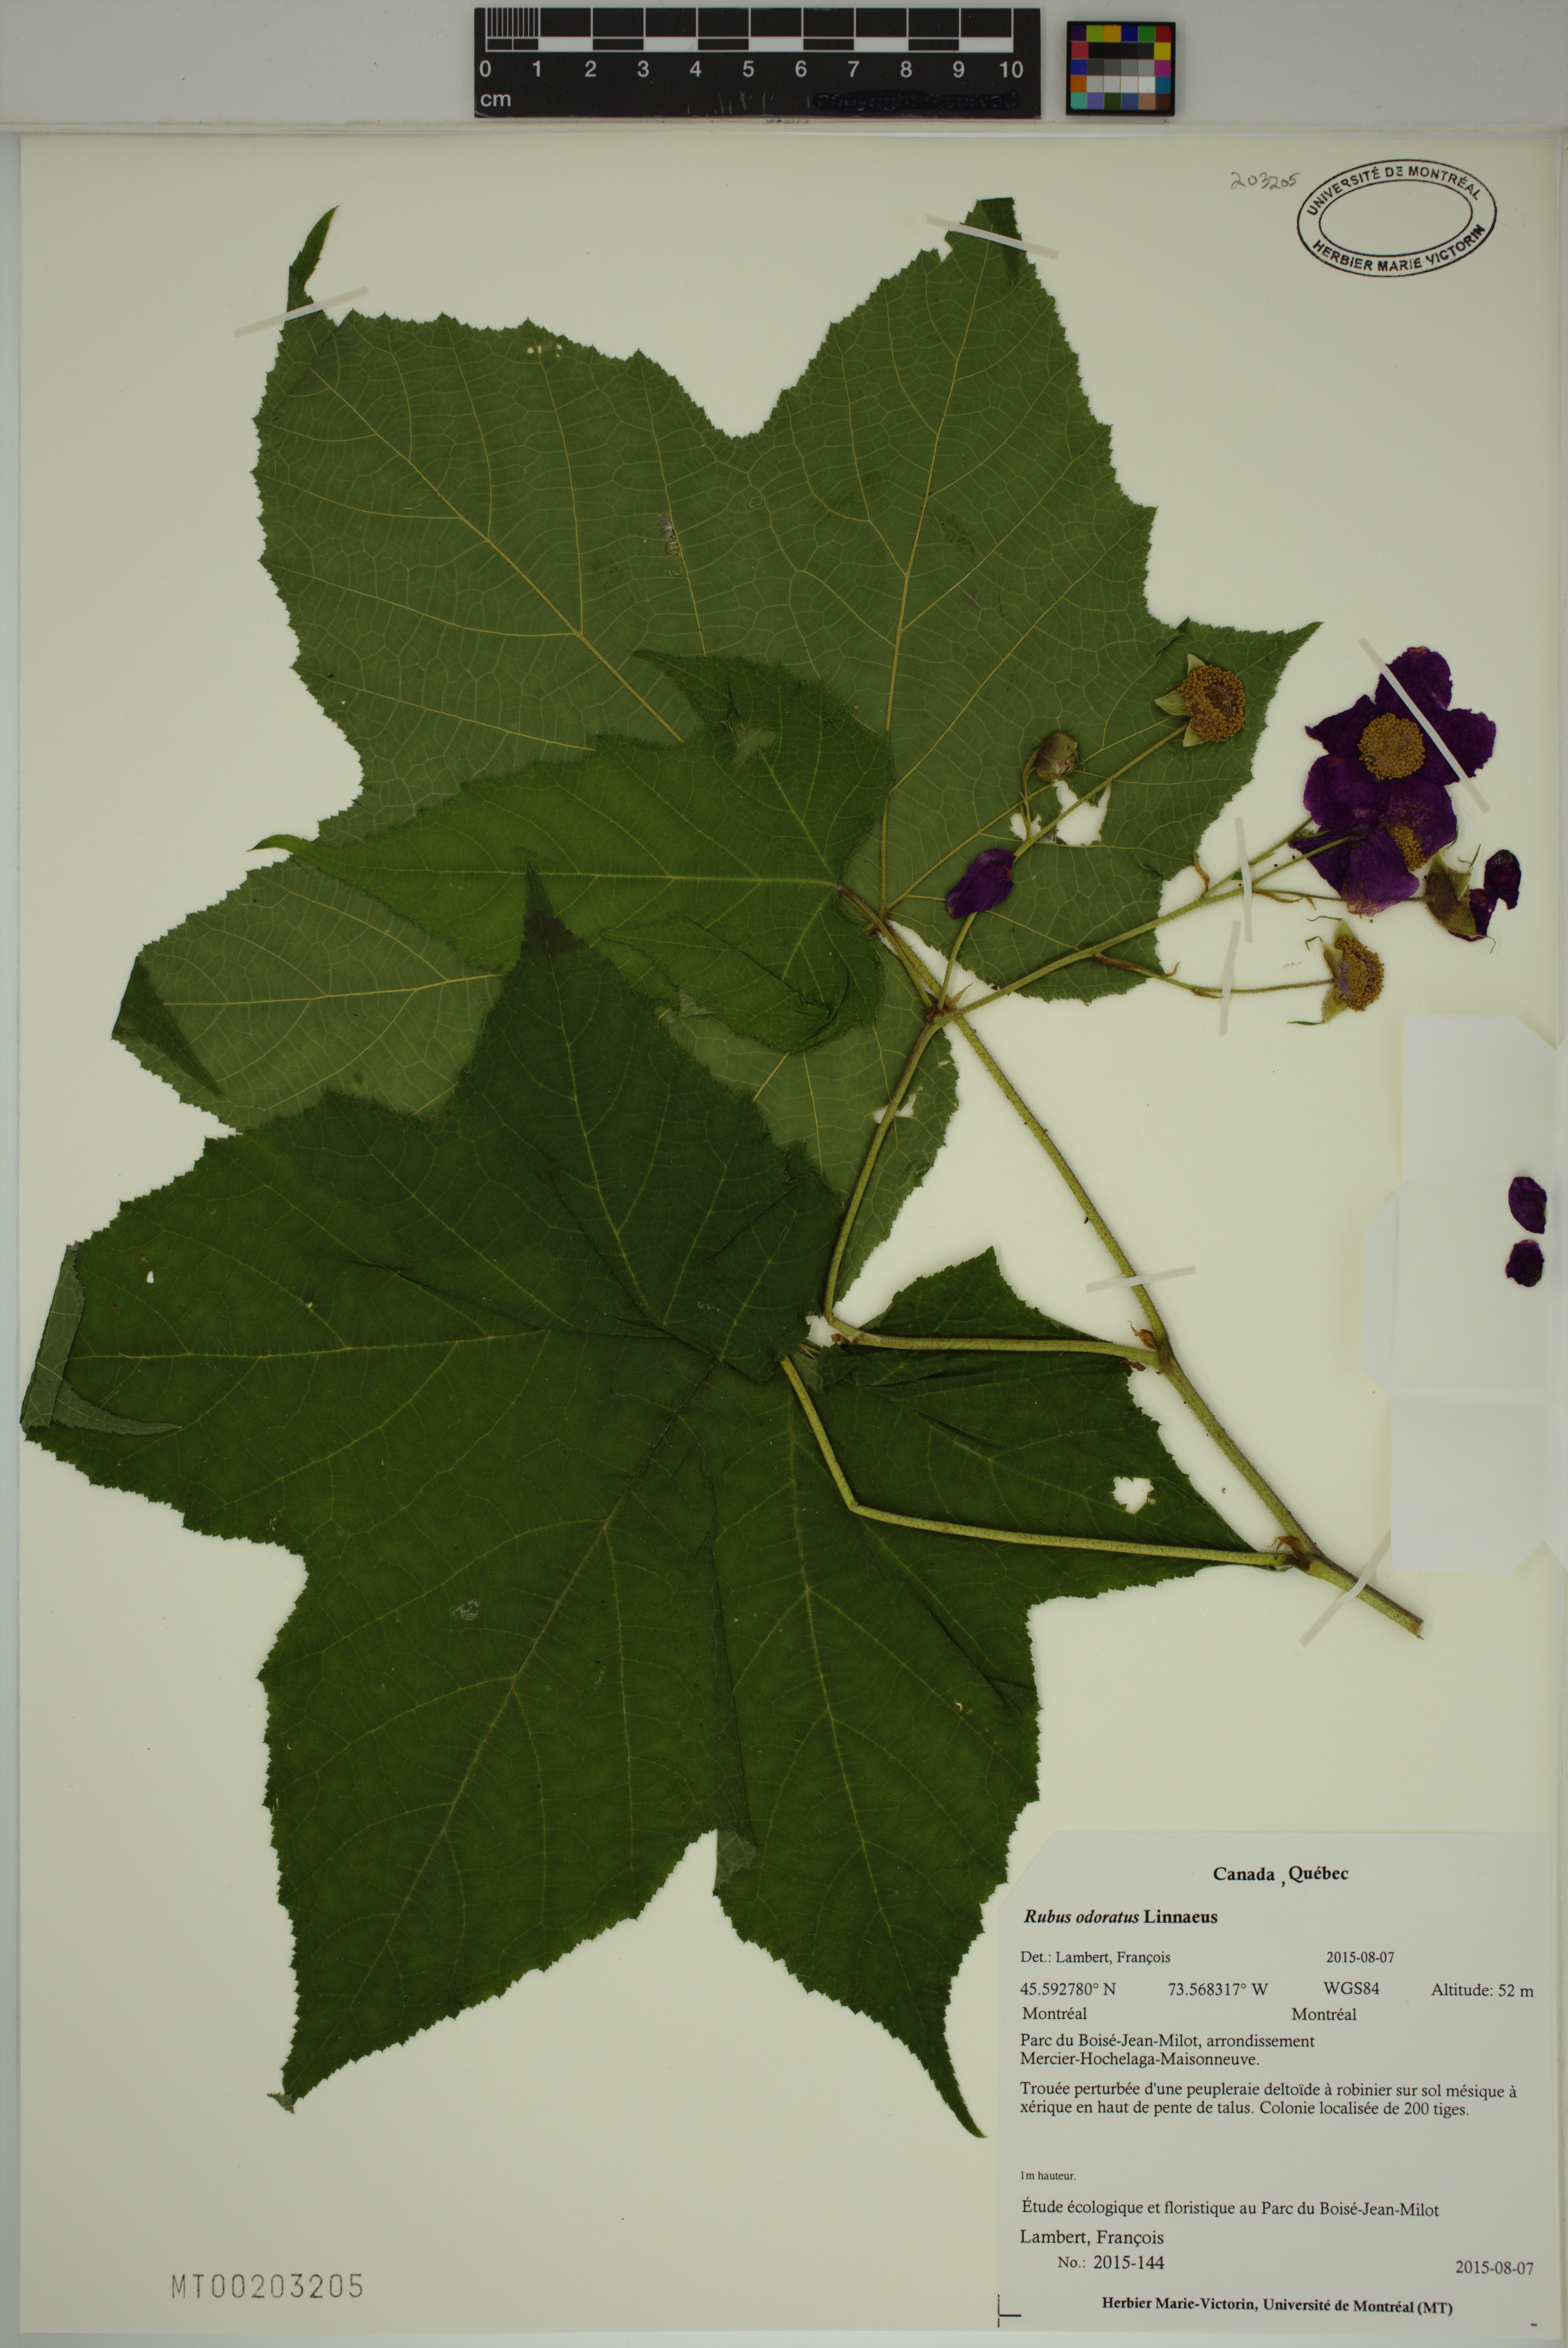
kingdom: Plantae
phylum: Tracheophyta
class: Magnoliopsida
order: Rosales
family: Rosaceae
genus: Rubus
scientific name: Rubus odoratus
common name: Purple-flowered raspberry
